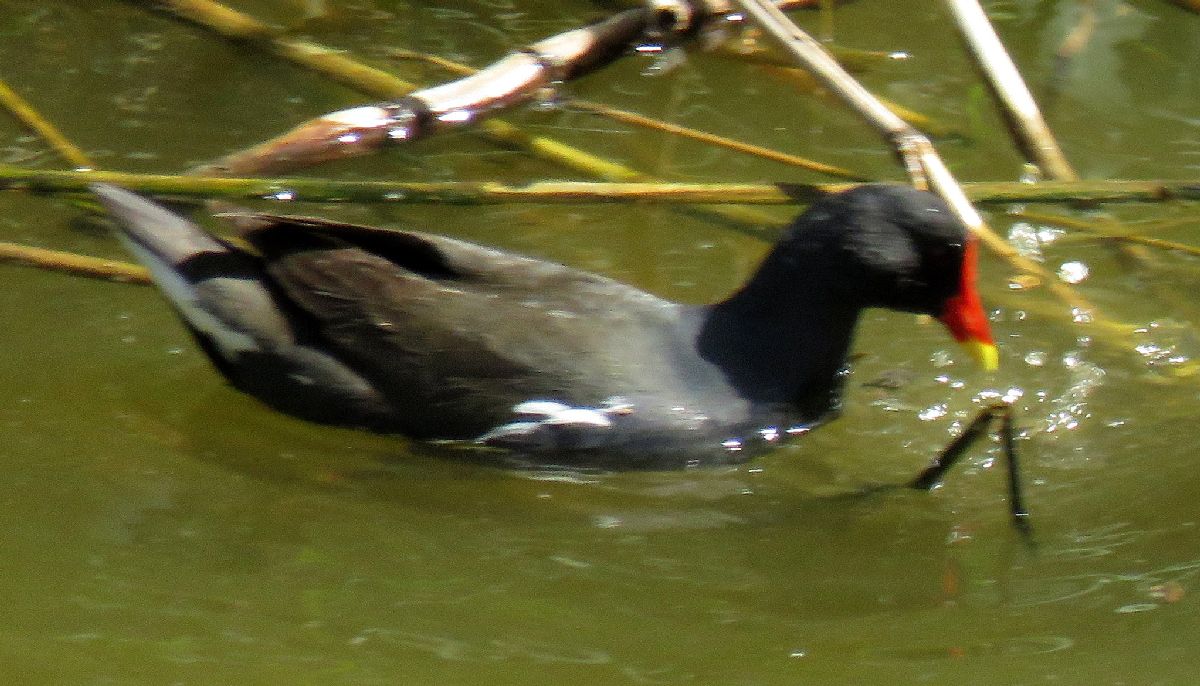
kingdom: Animalia
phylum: Chordata
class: Aves
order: Gruiformes
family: Rallidae
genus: Gallinula
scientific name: Gallinula chloropus
